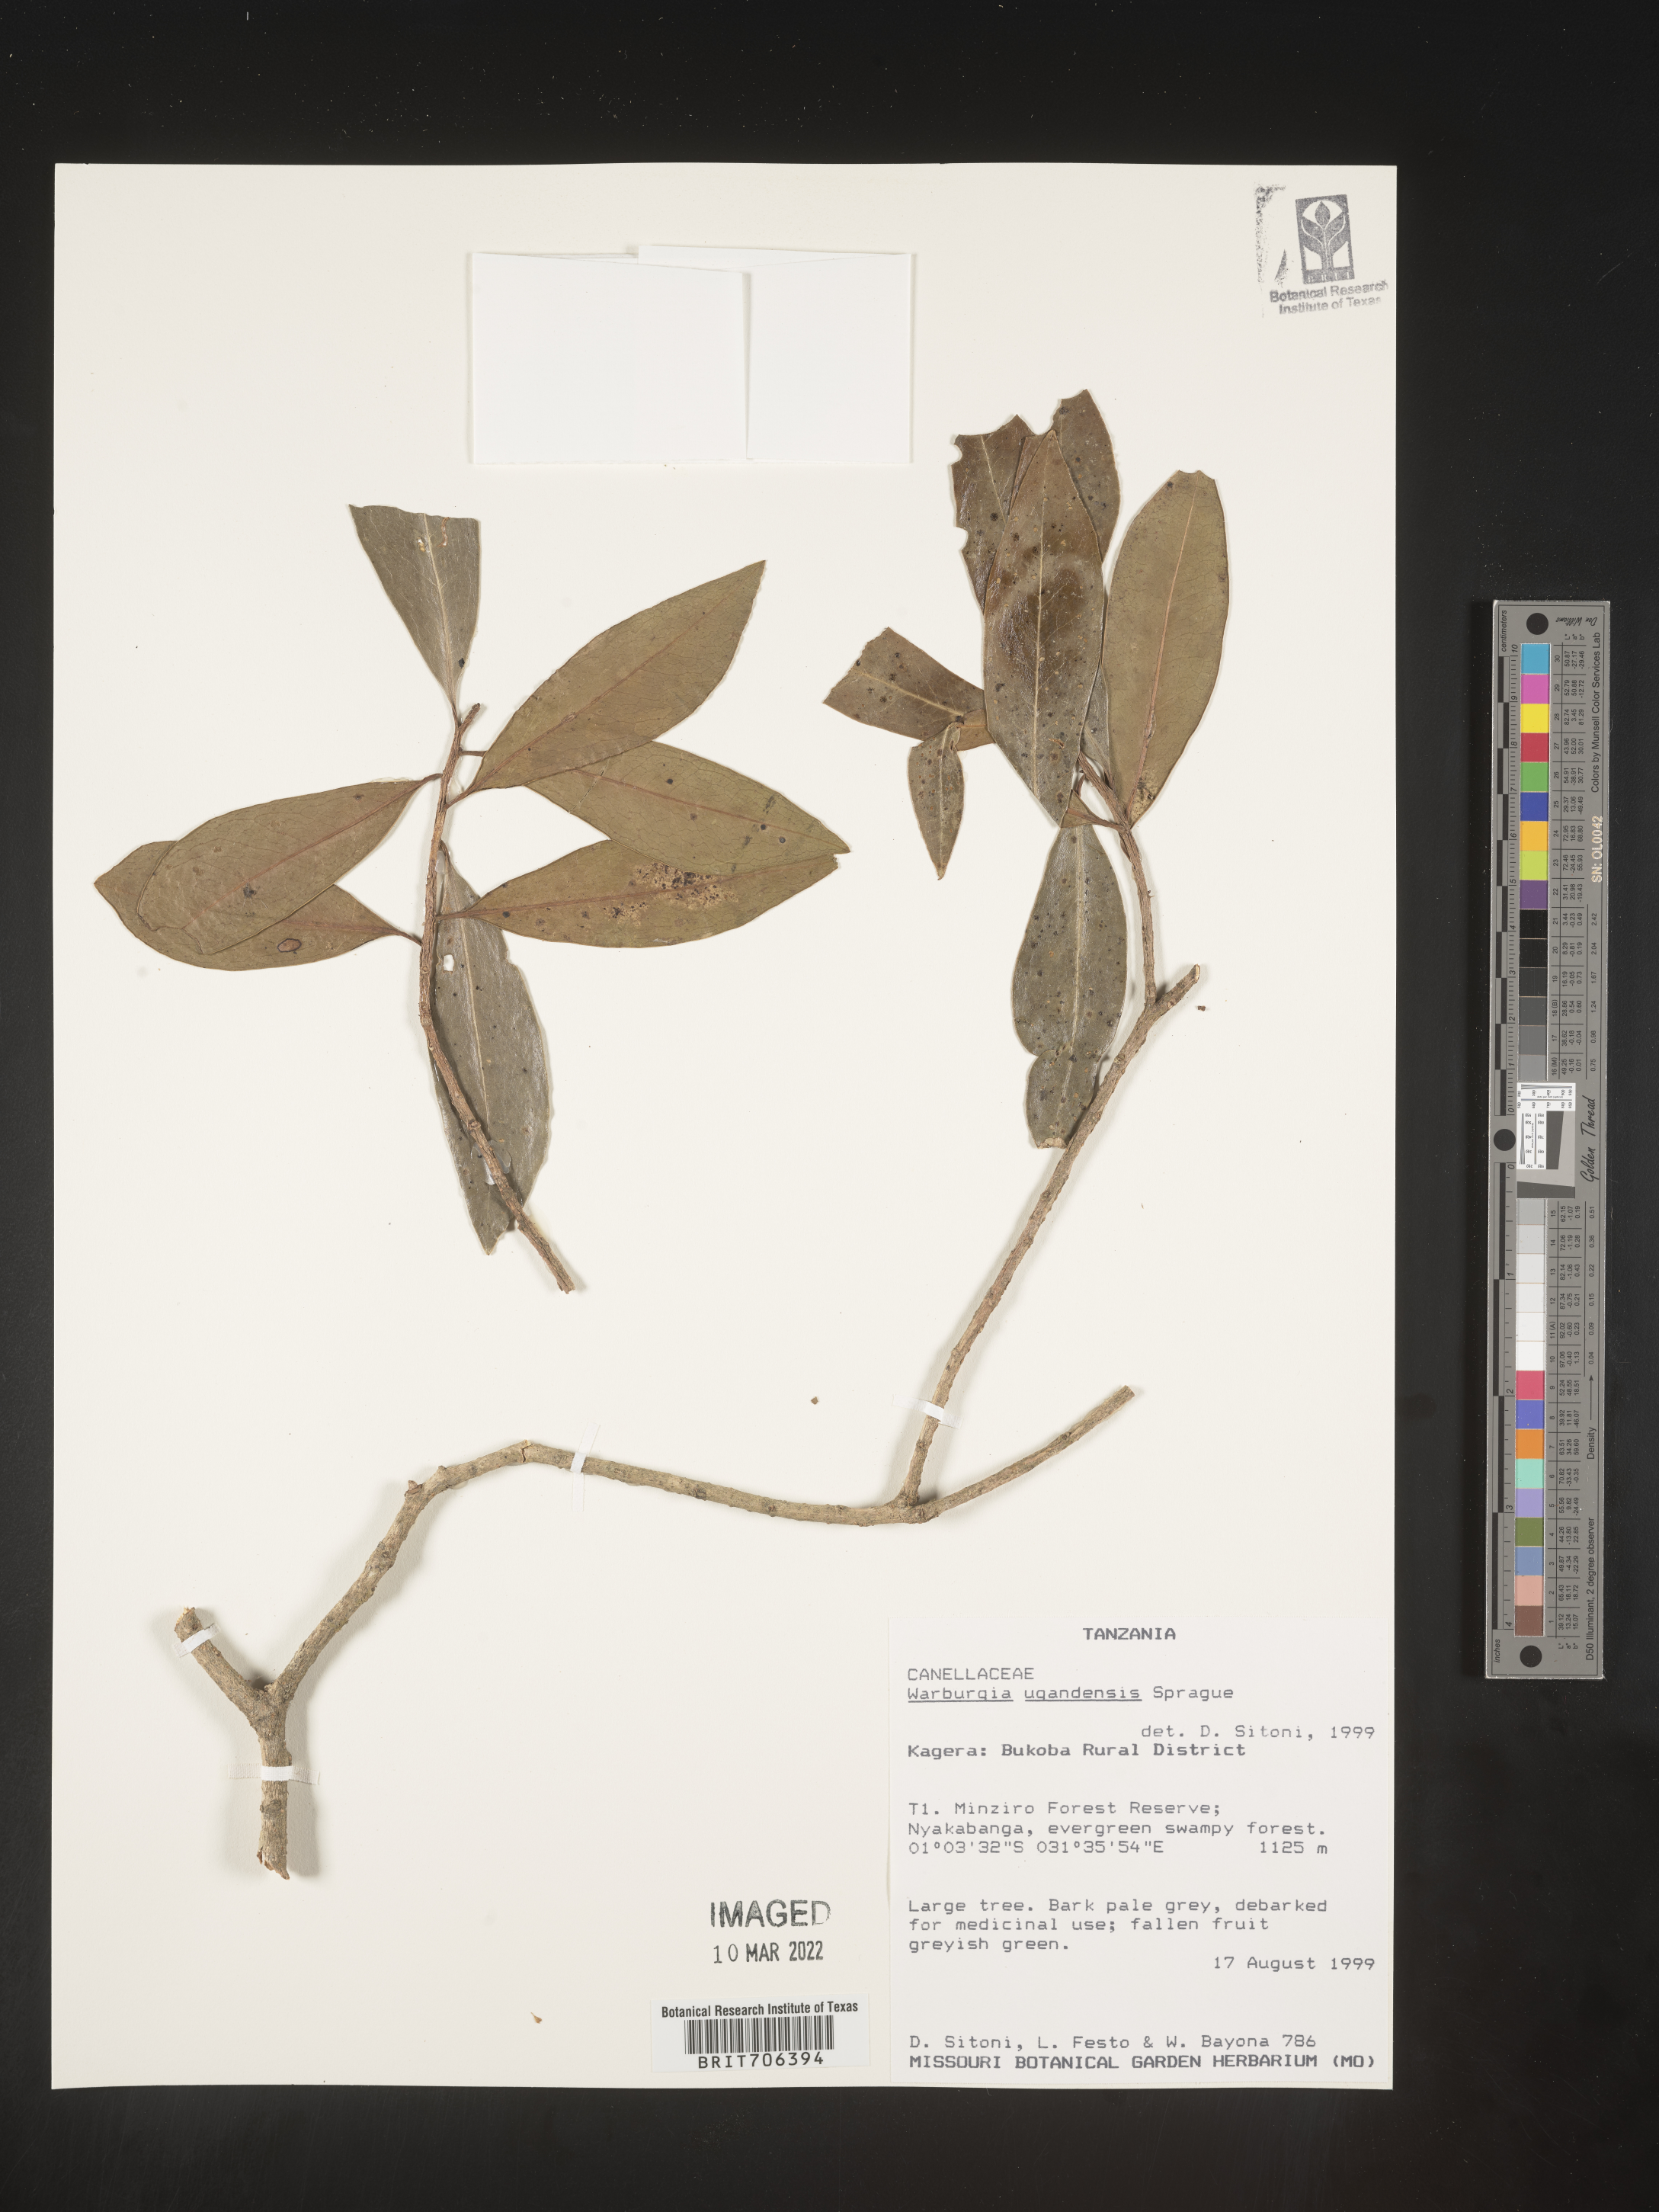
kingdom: Plantae
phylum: Tracheophyta
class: Magnoliopsida
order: Canellales
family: Canellaceae
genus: Warburgia
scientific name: Warburgia
